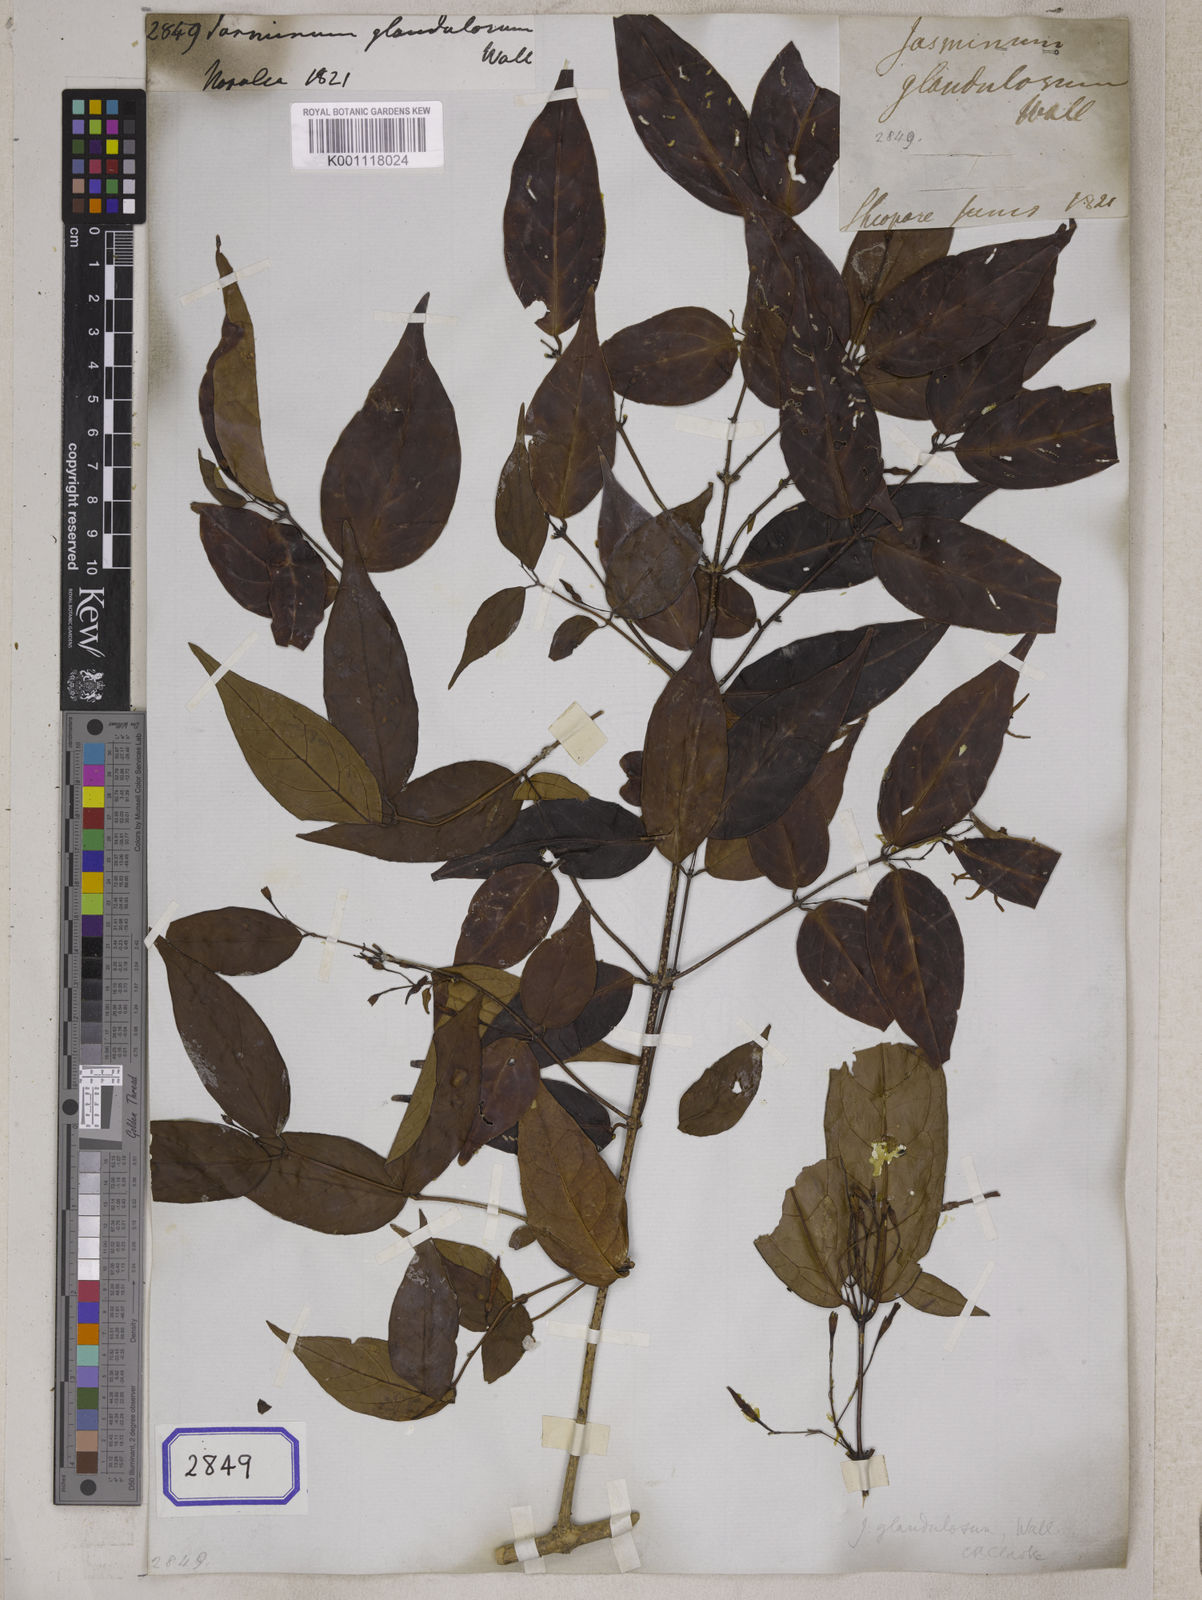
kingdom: Plantae
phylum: Tracheophyta
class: Magnoliopsida
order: Lamiales
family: Oleaceae
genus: Jasminum
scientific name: Jasminum
